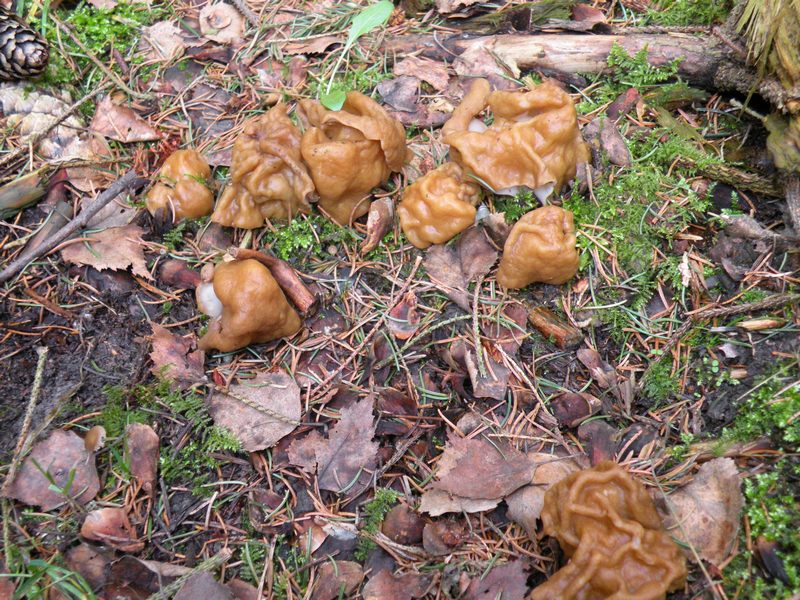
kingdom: Fungi
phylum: Ascomycota
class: Pezizomycetes
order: Pezizales
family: Discinaceae
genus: Gyromitra
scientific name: Gyromitra gigas
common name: kæmpe-stenmorkel
